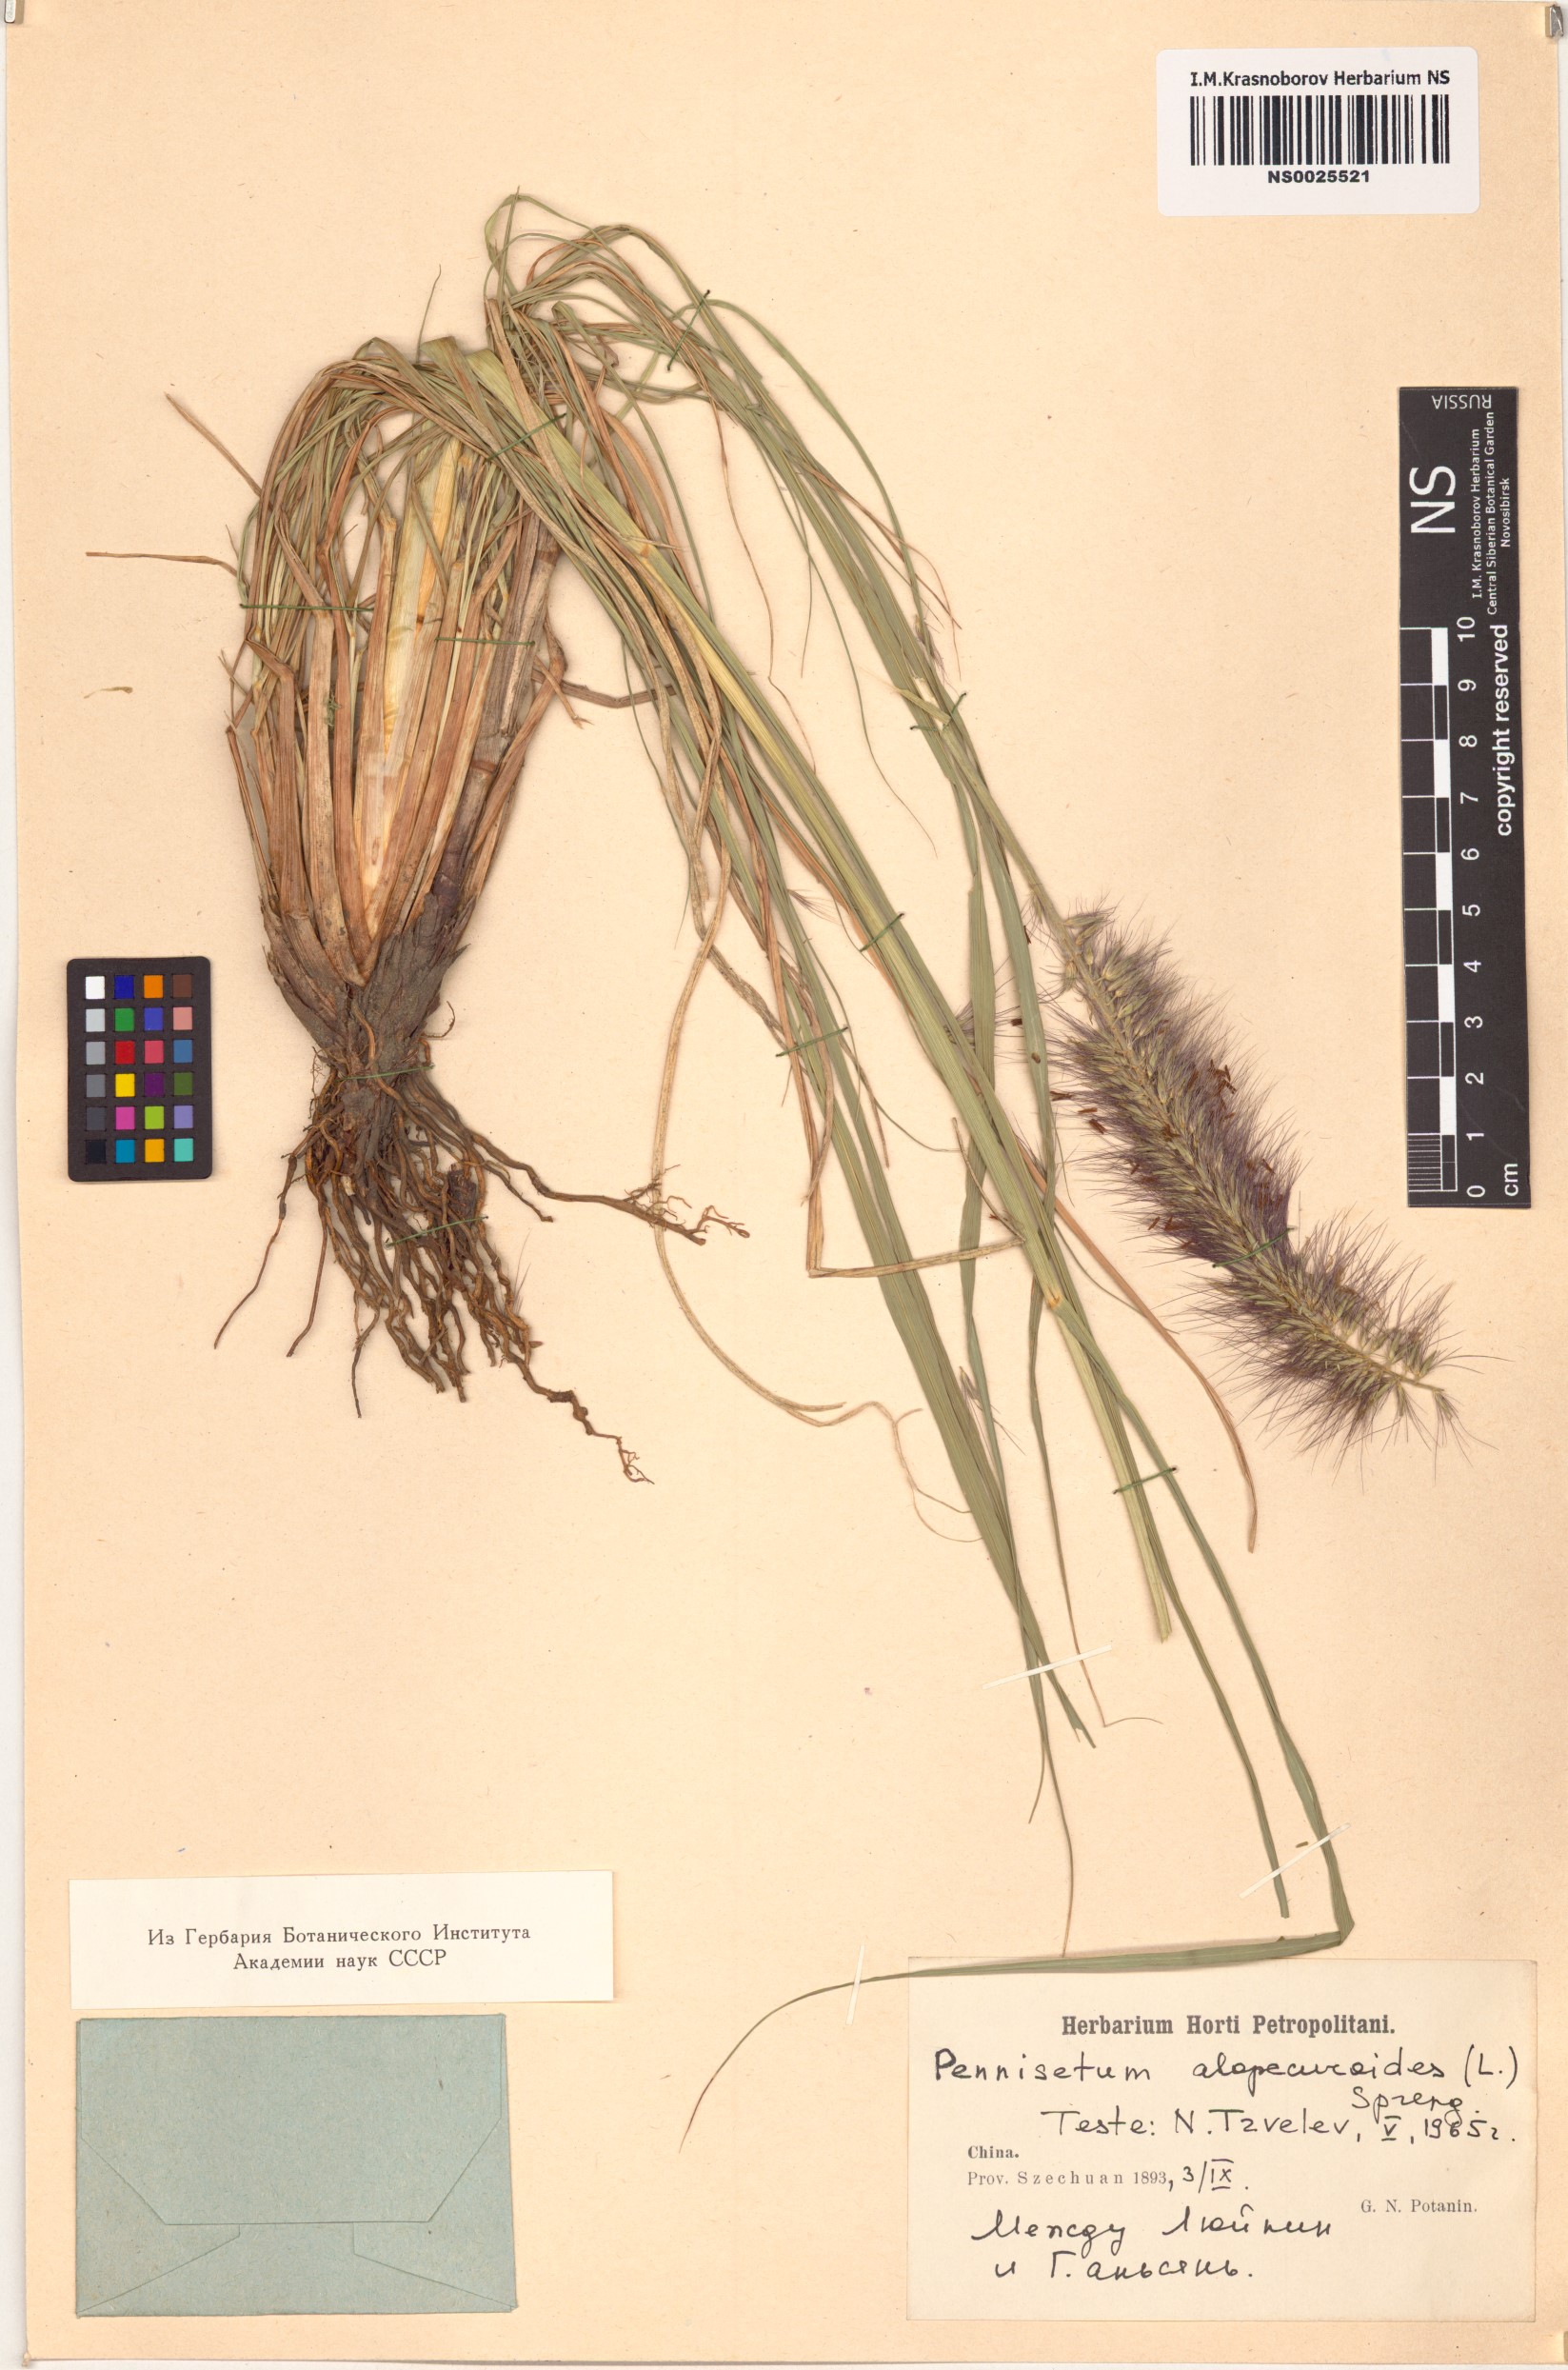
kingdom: Plantae
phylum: Tracheophyta
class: Liliopsida
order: Poales
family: Poaceae
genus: Cenchrus
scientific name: Cenchrus alopecuroides
